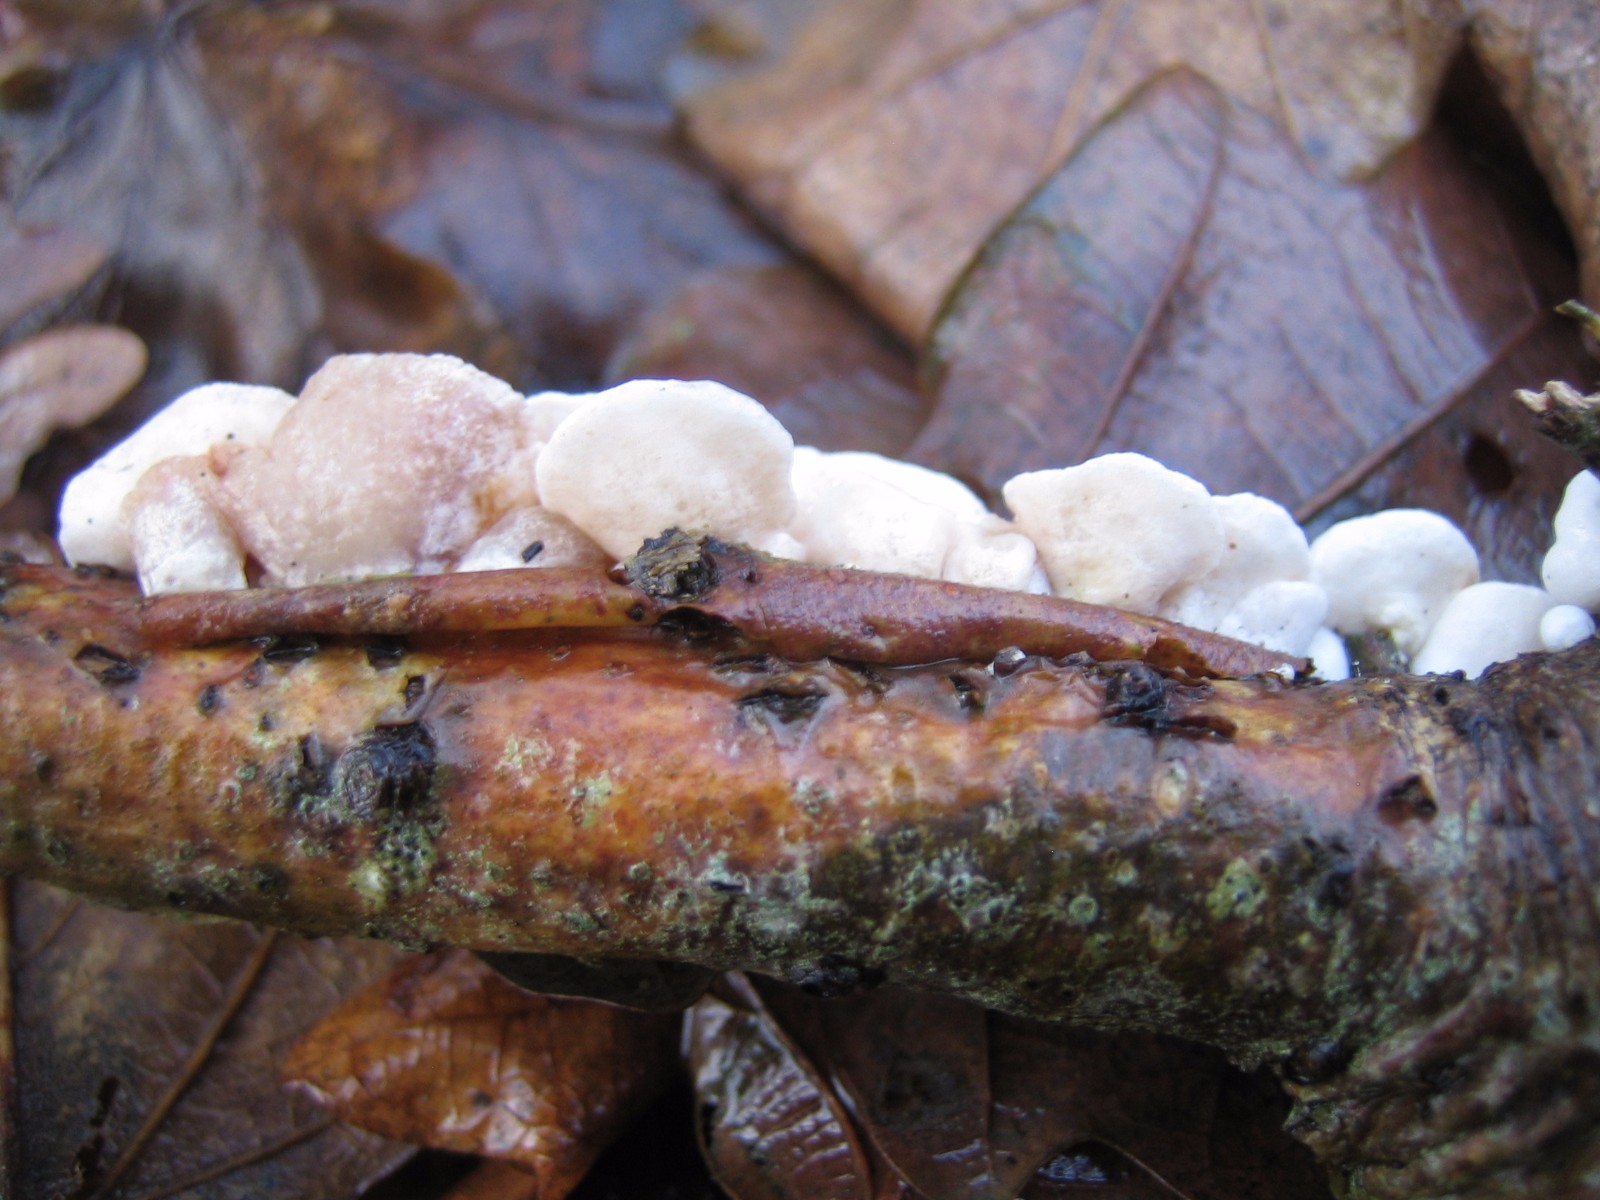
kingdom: Fungi
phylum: Basidiomycota
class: Agaricomycetes
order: Agaricales
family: Crepidotaceae
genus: Crepidotus
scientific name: Crepidotus
